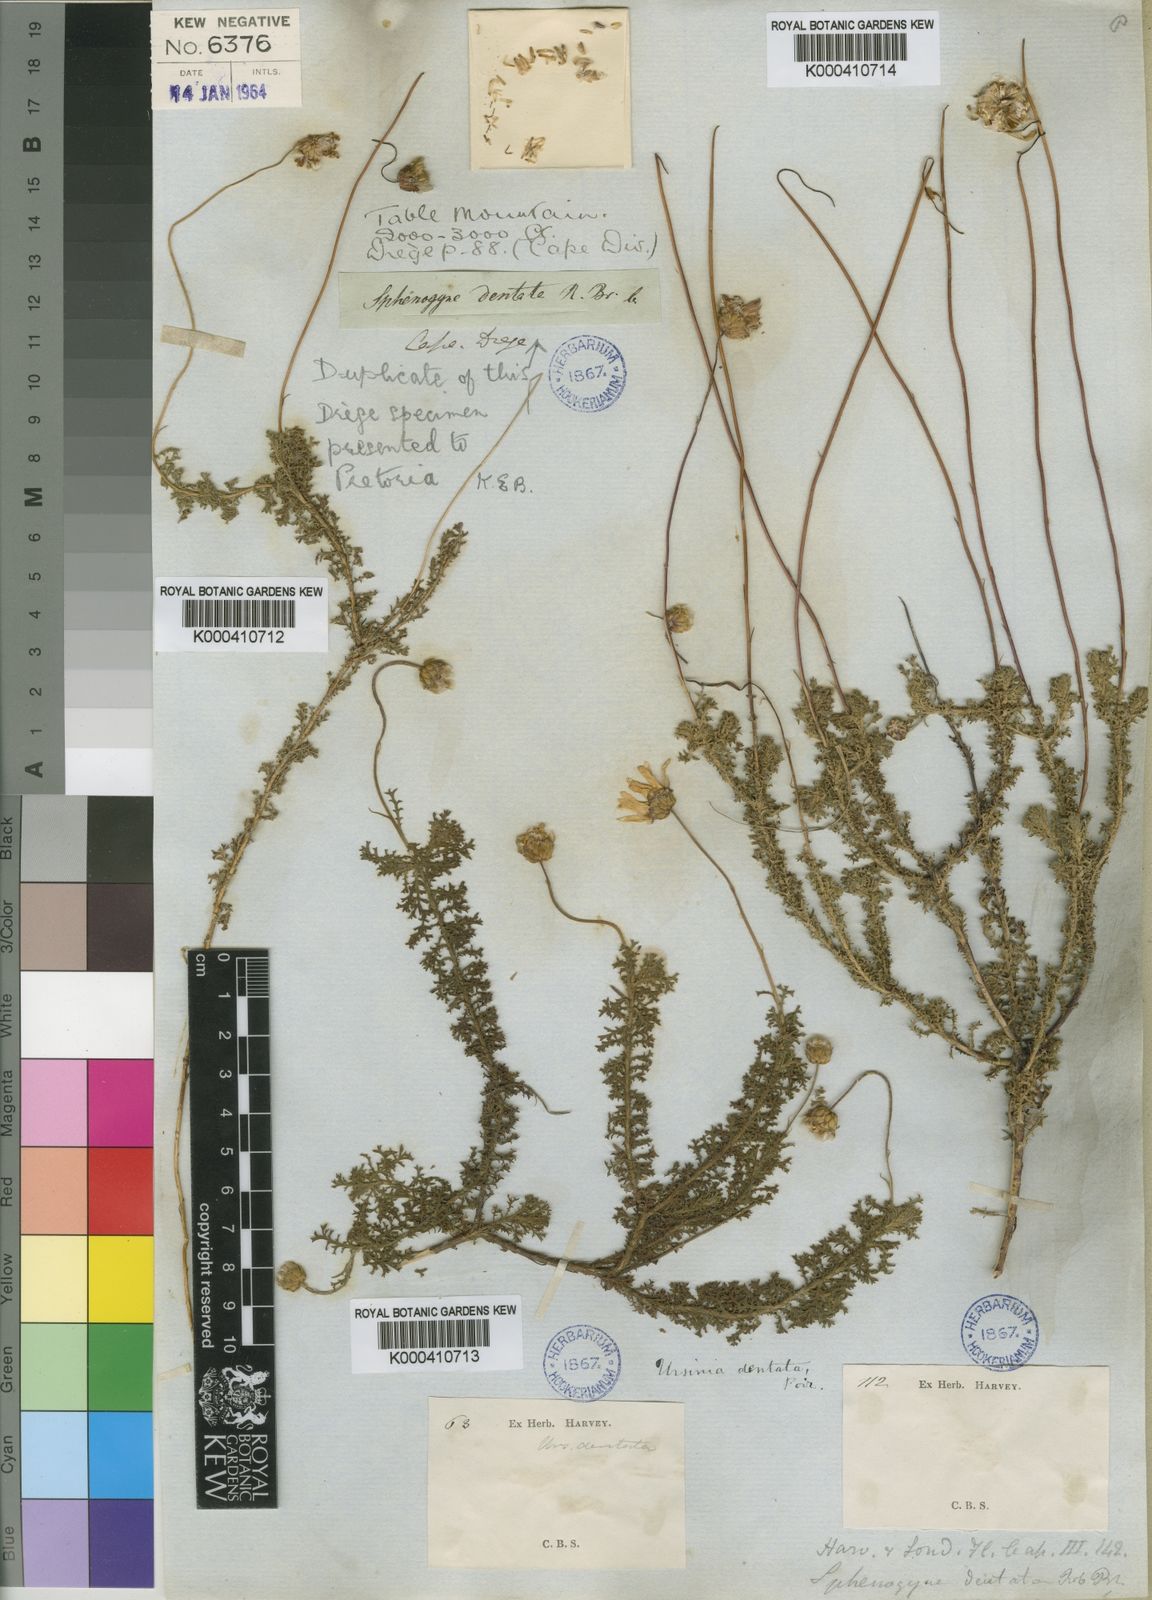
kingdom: Plantae
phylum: Tracheophyta
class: Magnoliopsida
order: Asterales
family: Asteraceae
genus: Ursinia
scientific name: Ursinia dentata
